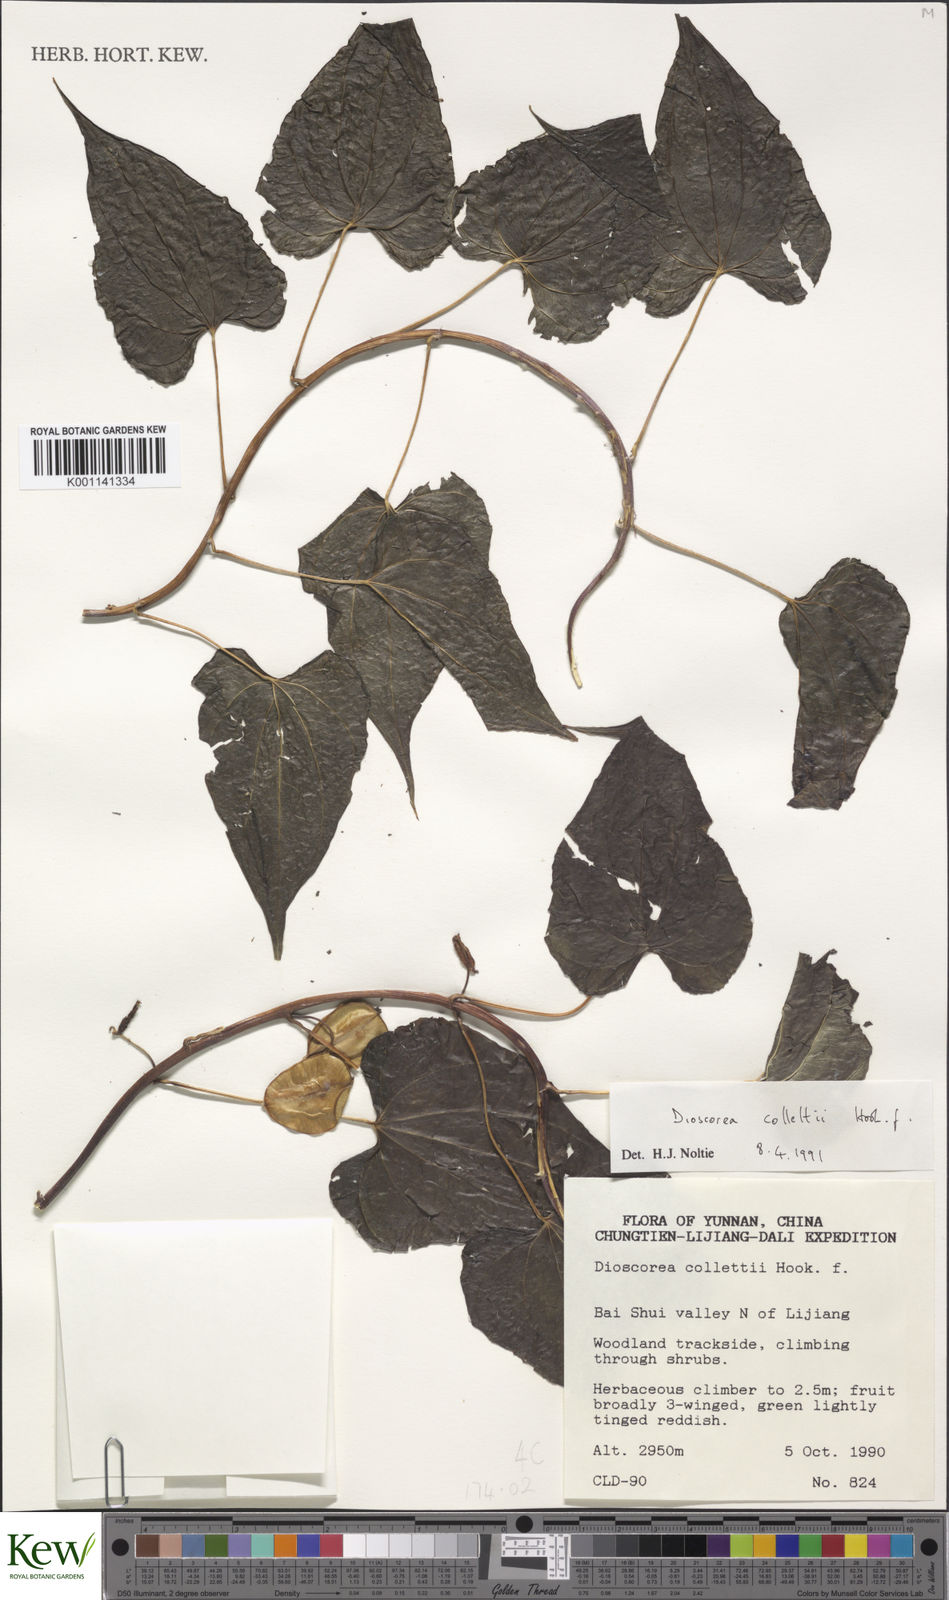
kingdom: Plantae
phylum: Tracheophyta
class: Liliopsida
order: Dioscoreales
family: Dioscoreaceae
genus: Dioscorea
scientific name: Dioscorea collettii
